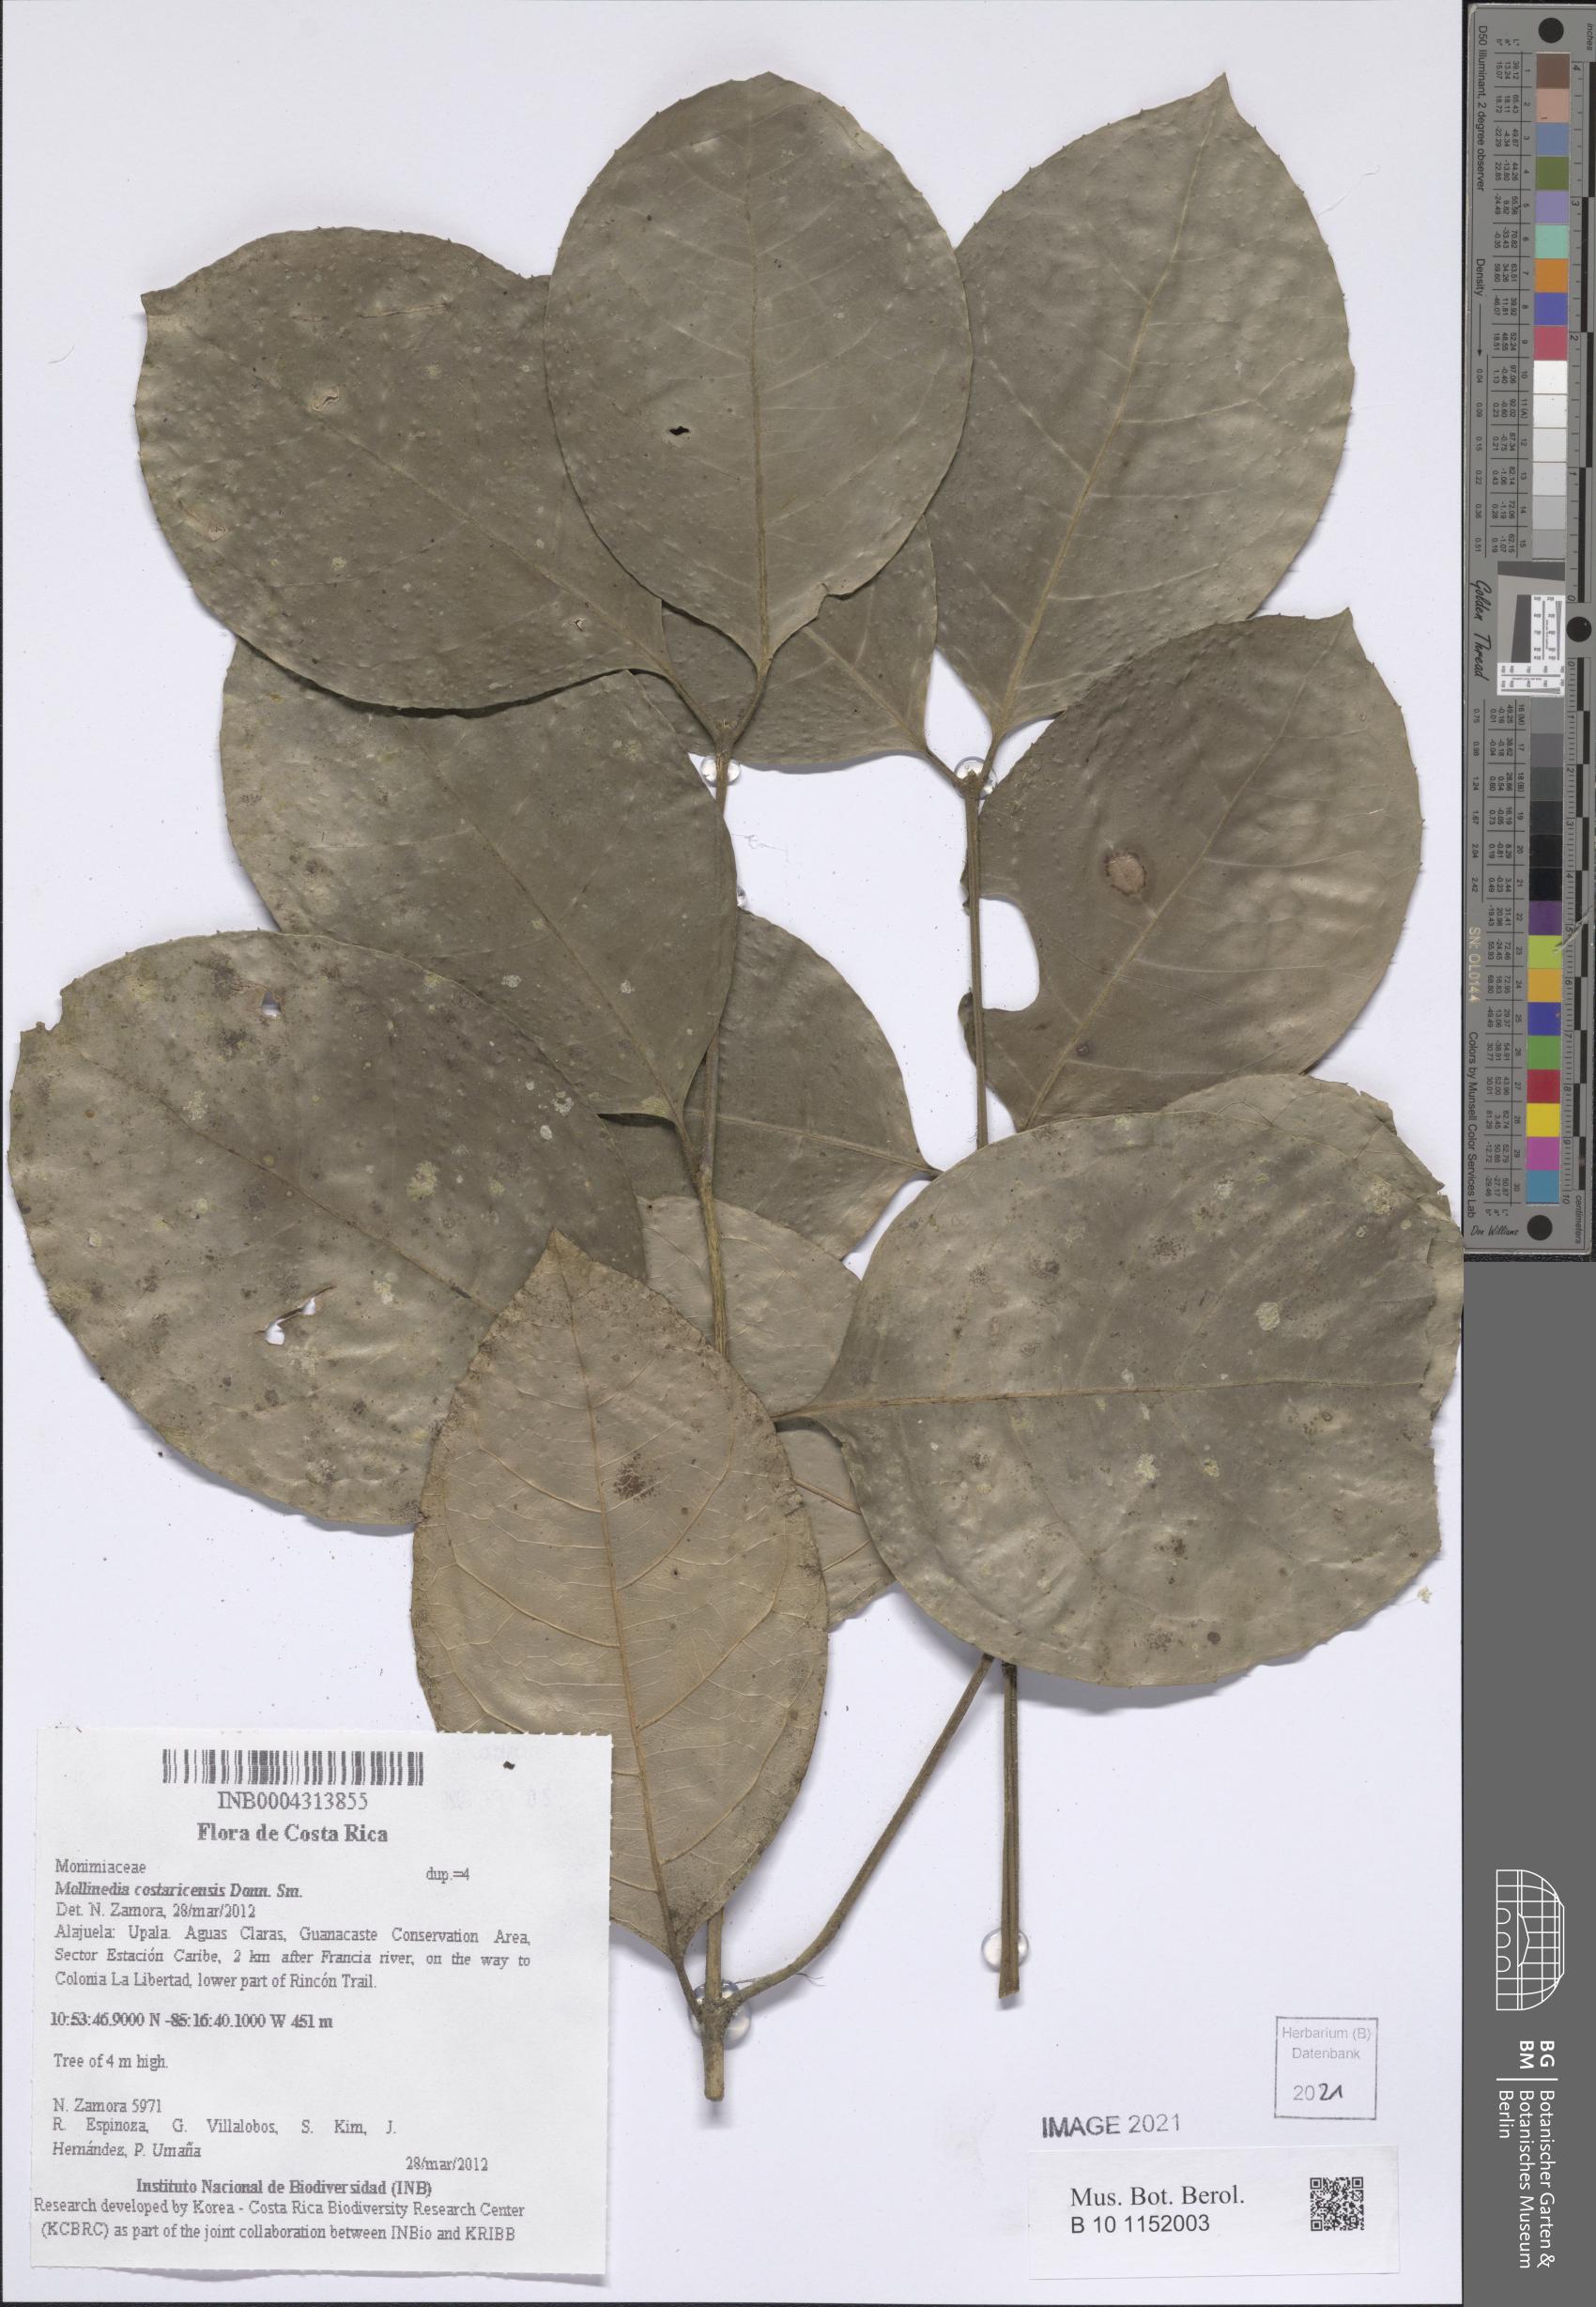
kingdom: Plantae
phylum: Tracheophyta
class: Magnoliopsida
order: Laurales
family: Monimiaceae
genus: Mollinedia
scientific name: Mollinedia costaricensis
